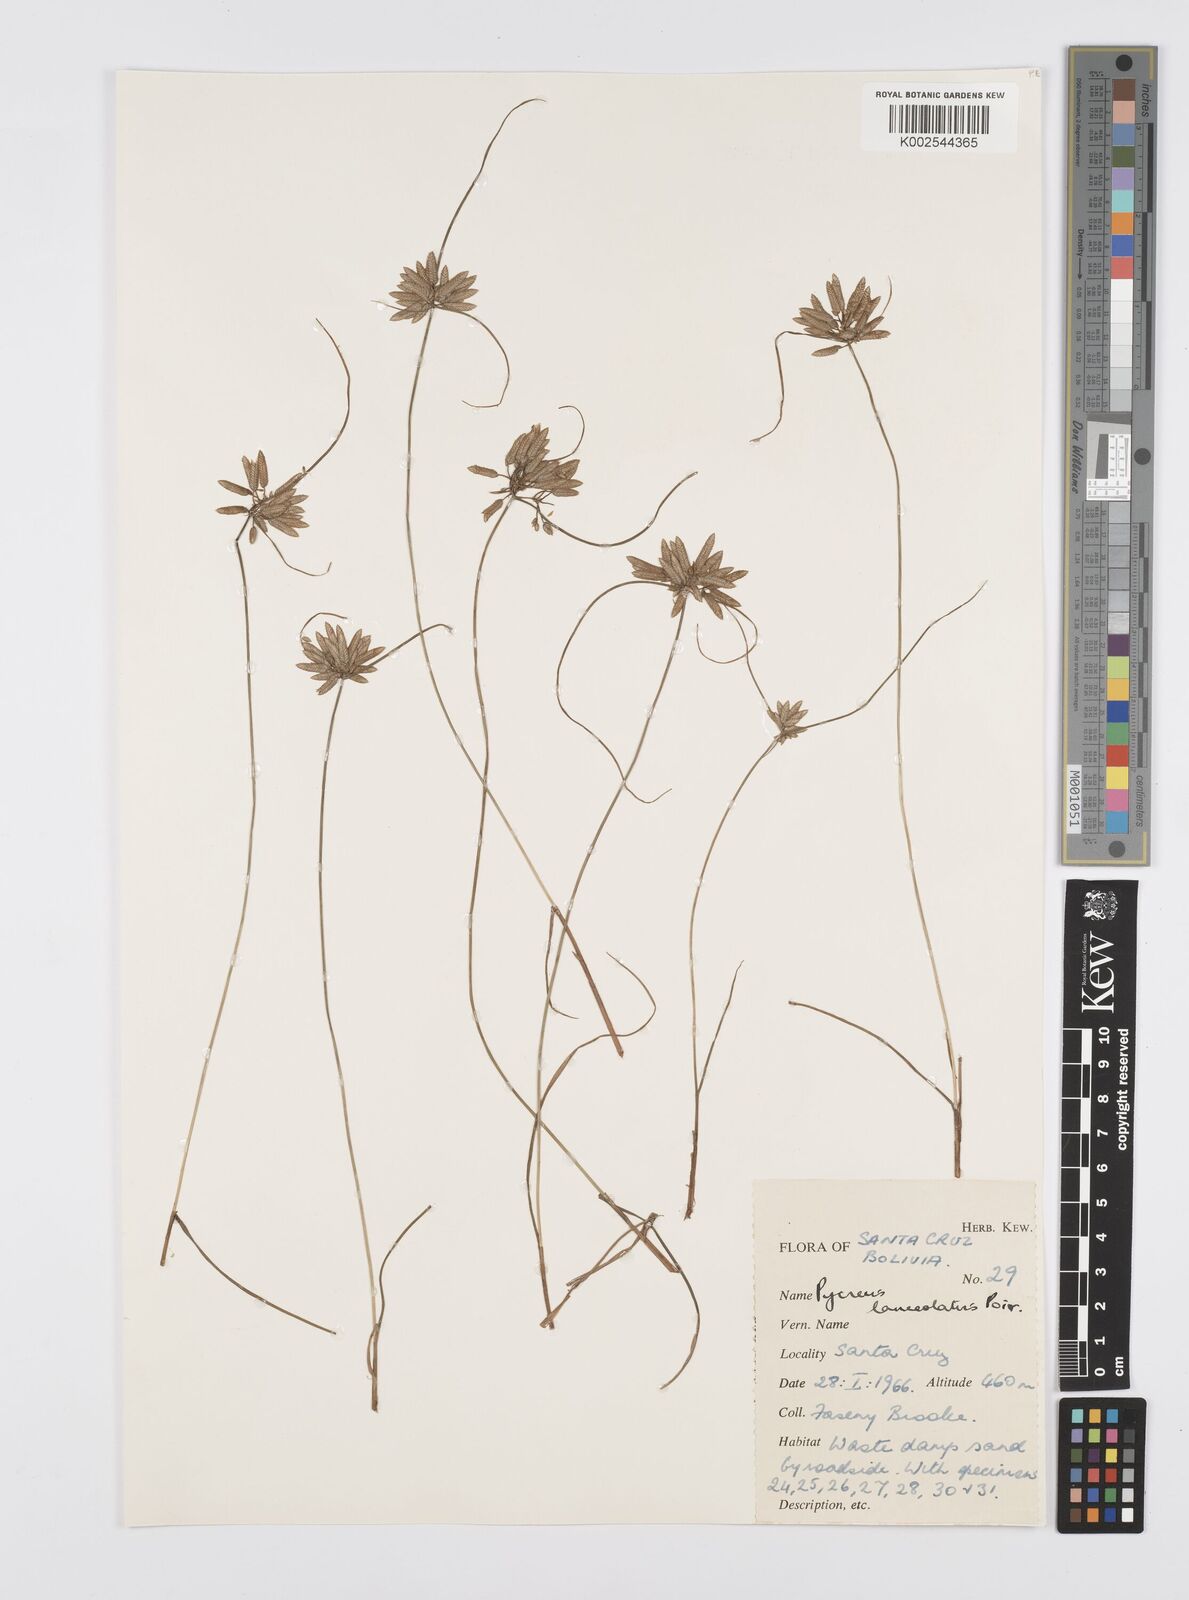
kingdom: Plantae
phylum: Tracheophyta
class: Liliopsida
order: Poales
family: Cyperaceae
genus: Cyperus
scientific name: Cyperus
